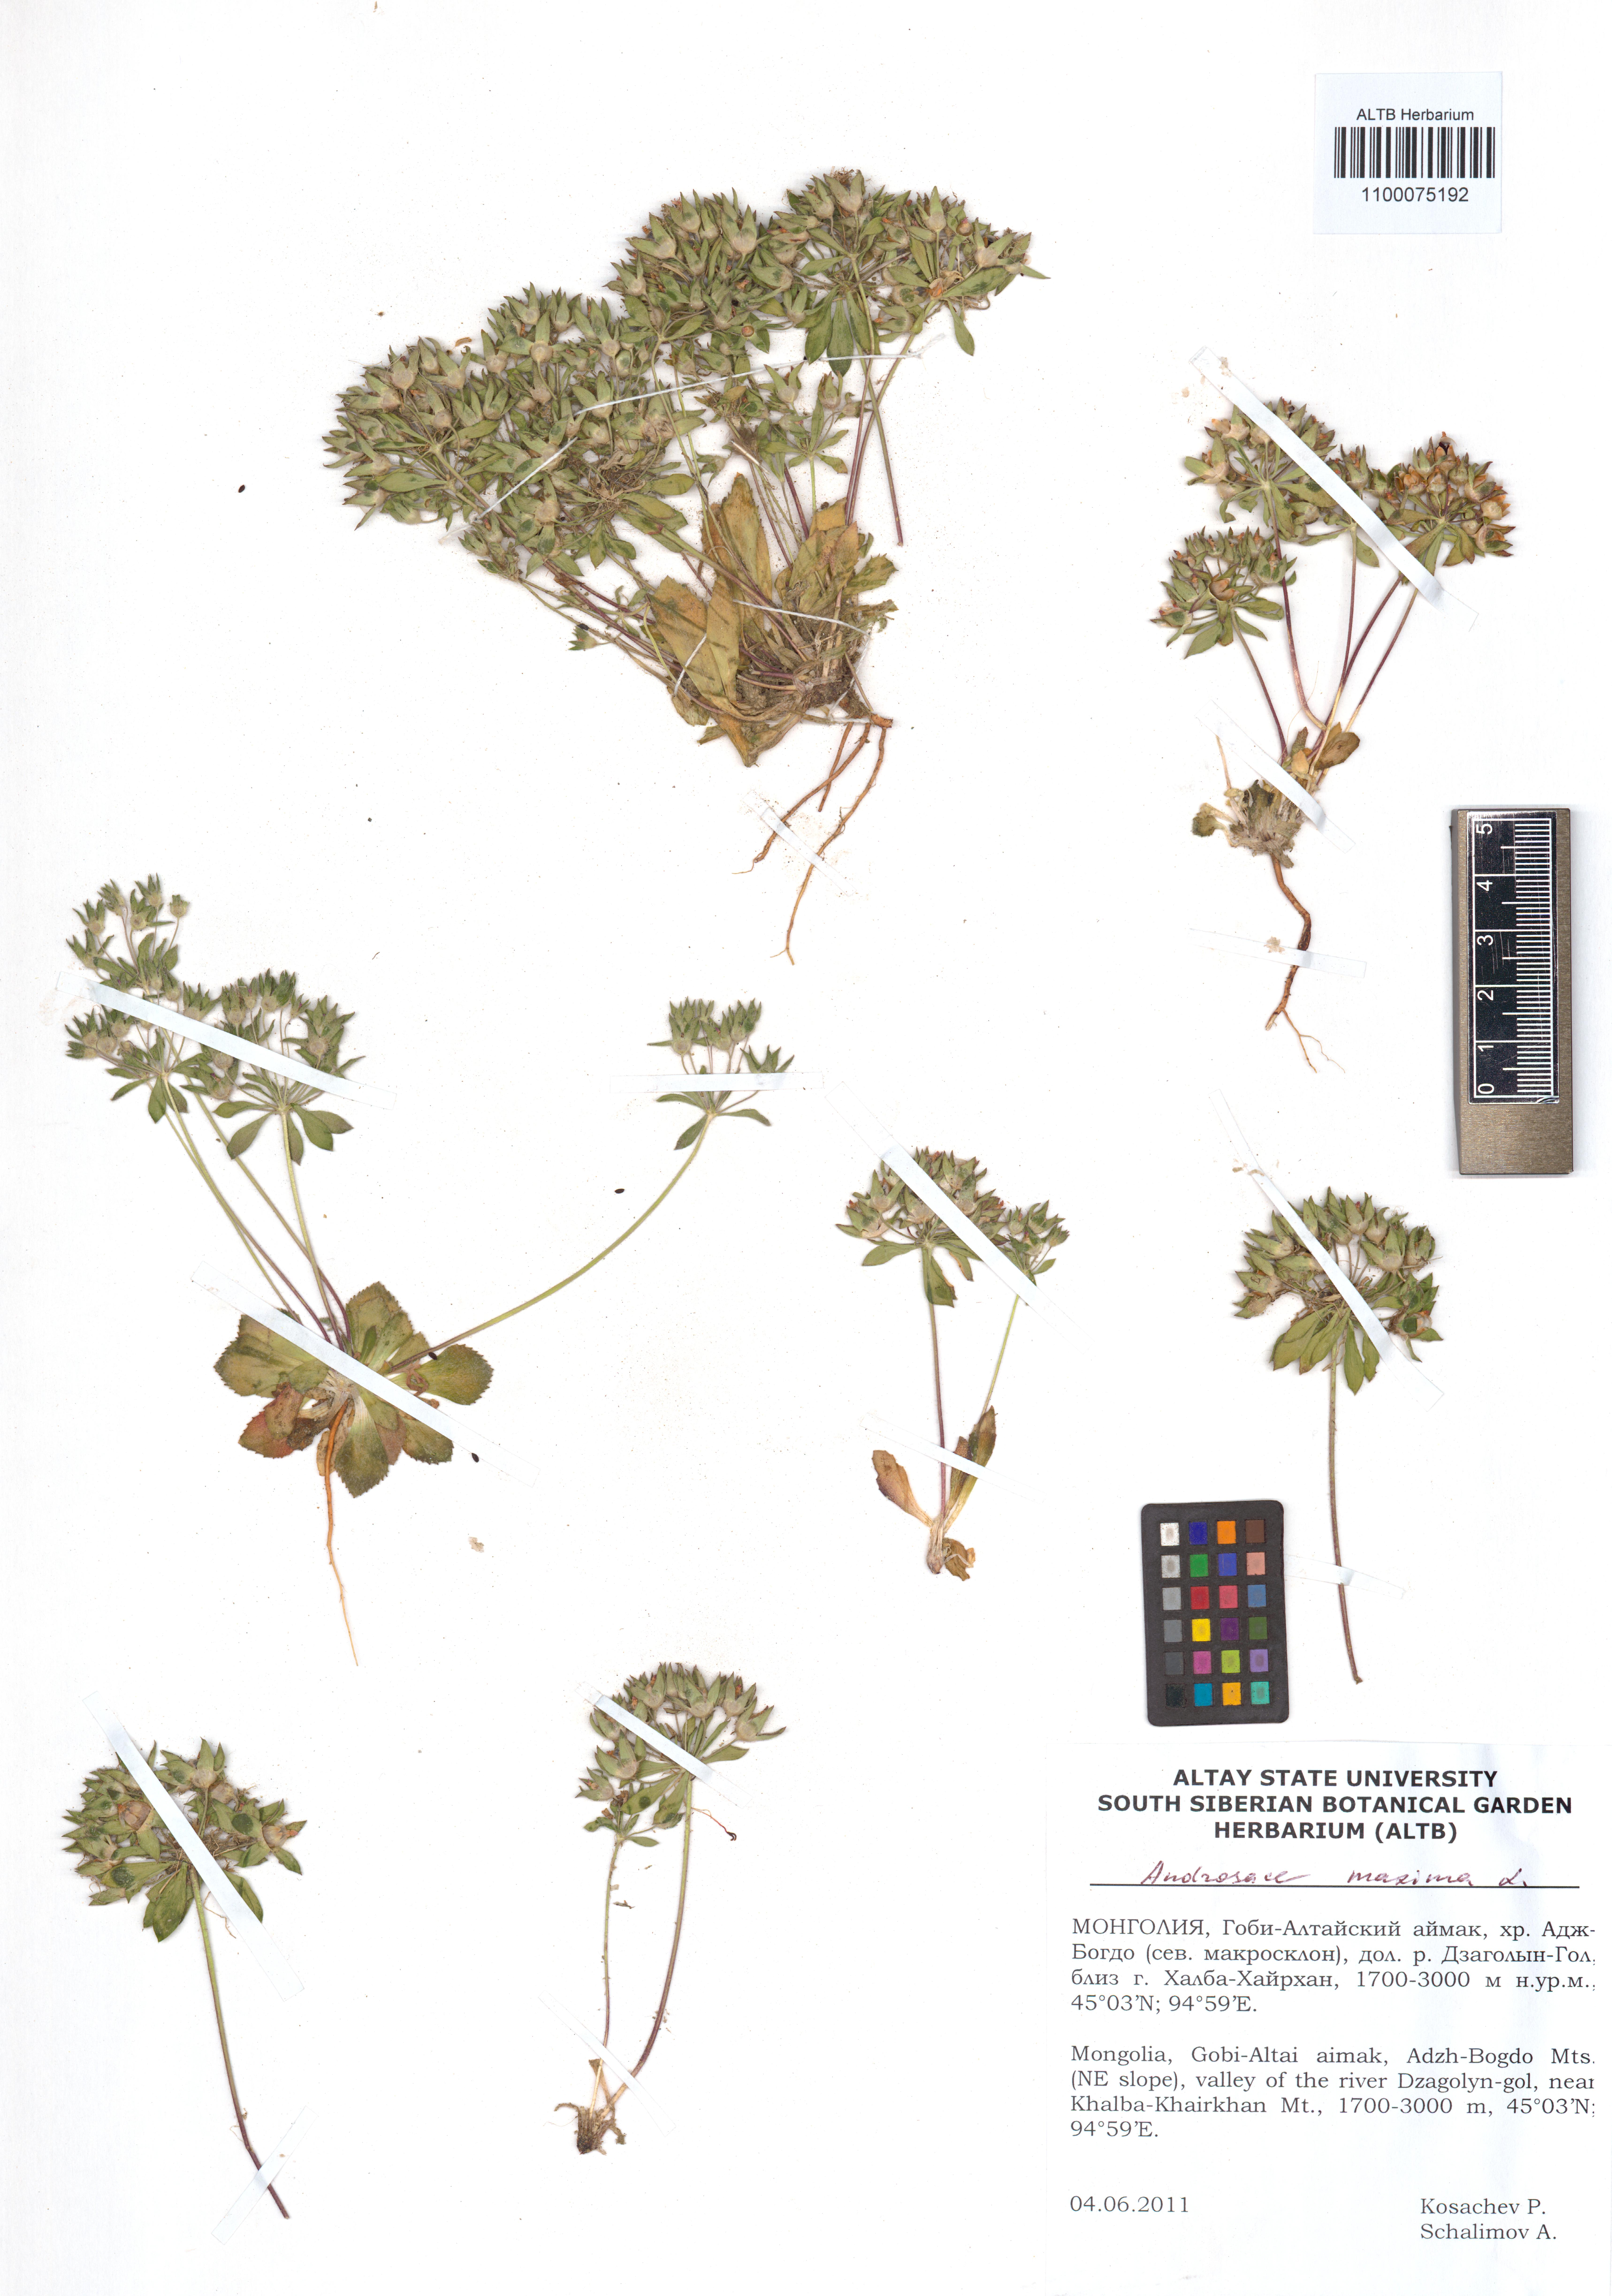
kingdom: Plantae
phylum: Tracheophyta
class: Magnoliopsida
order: Ericales
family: Primulaceae
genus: Androsace
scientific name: Androsace maxima
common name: Annual androsace
